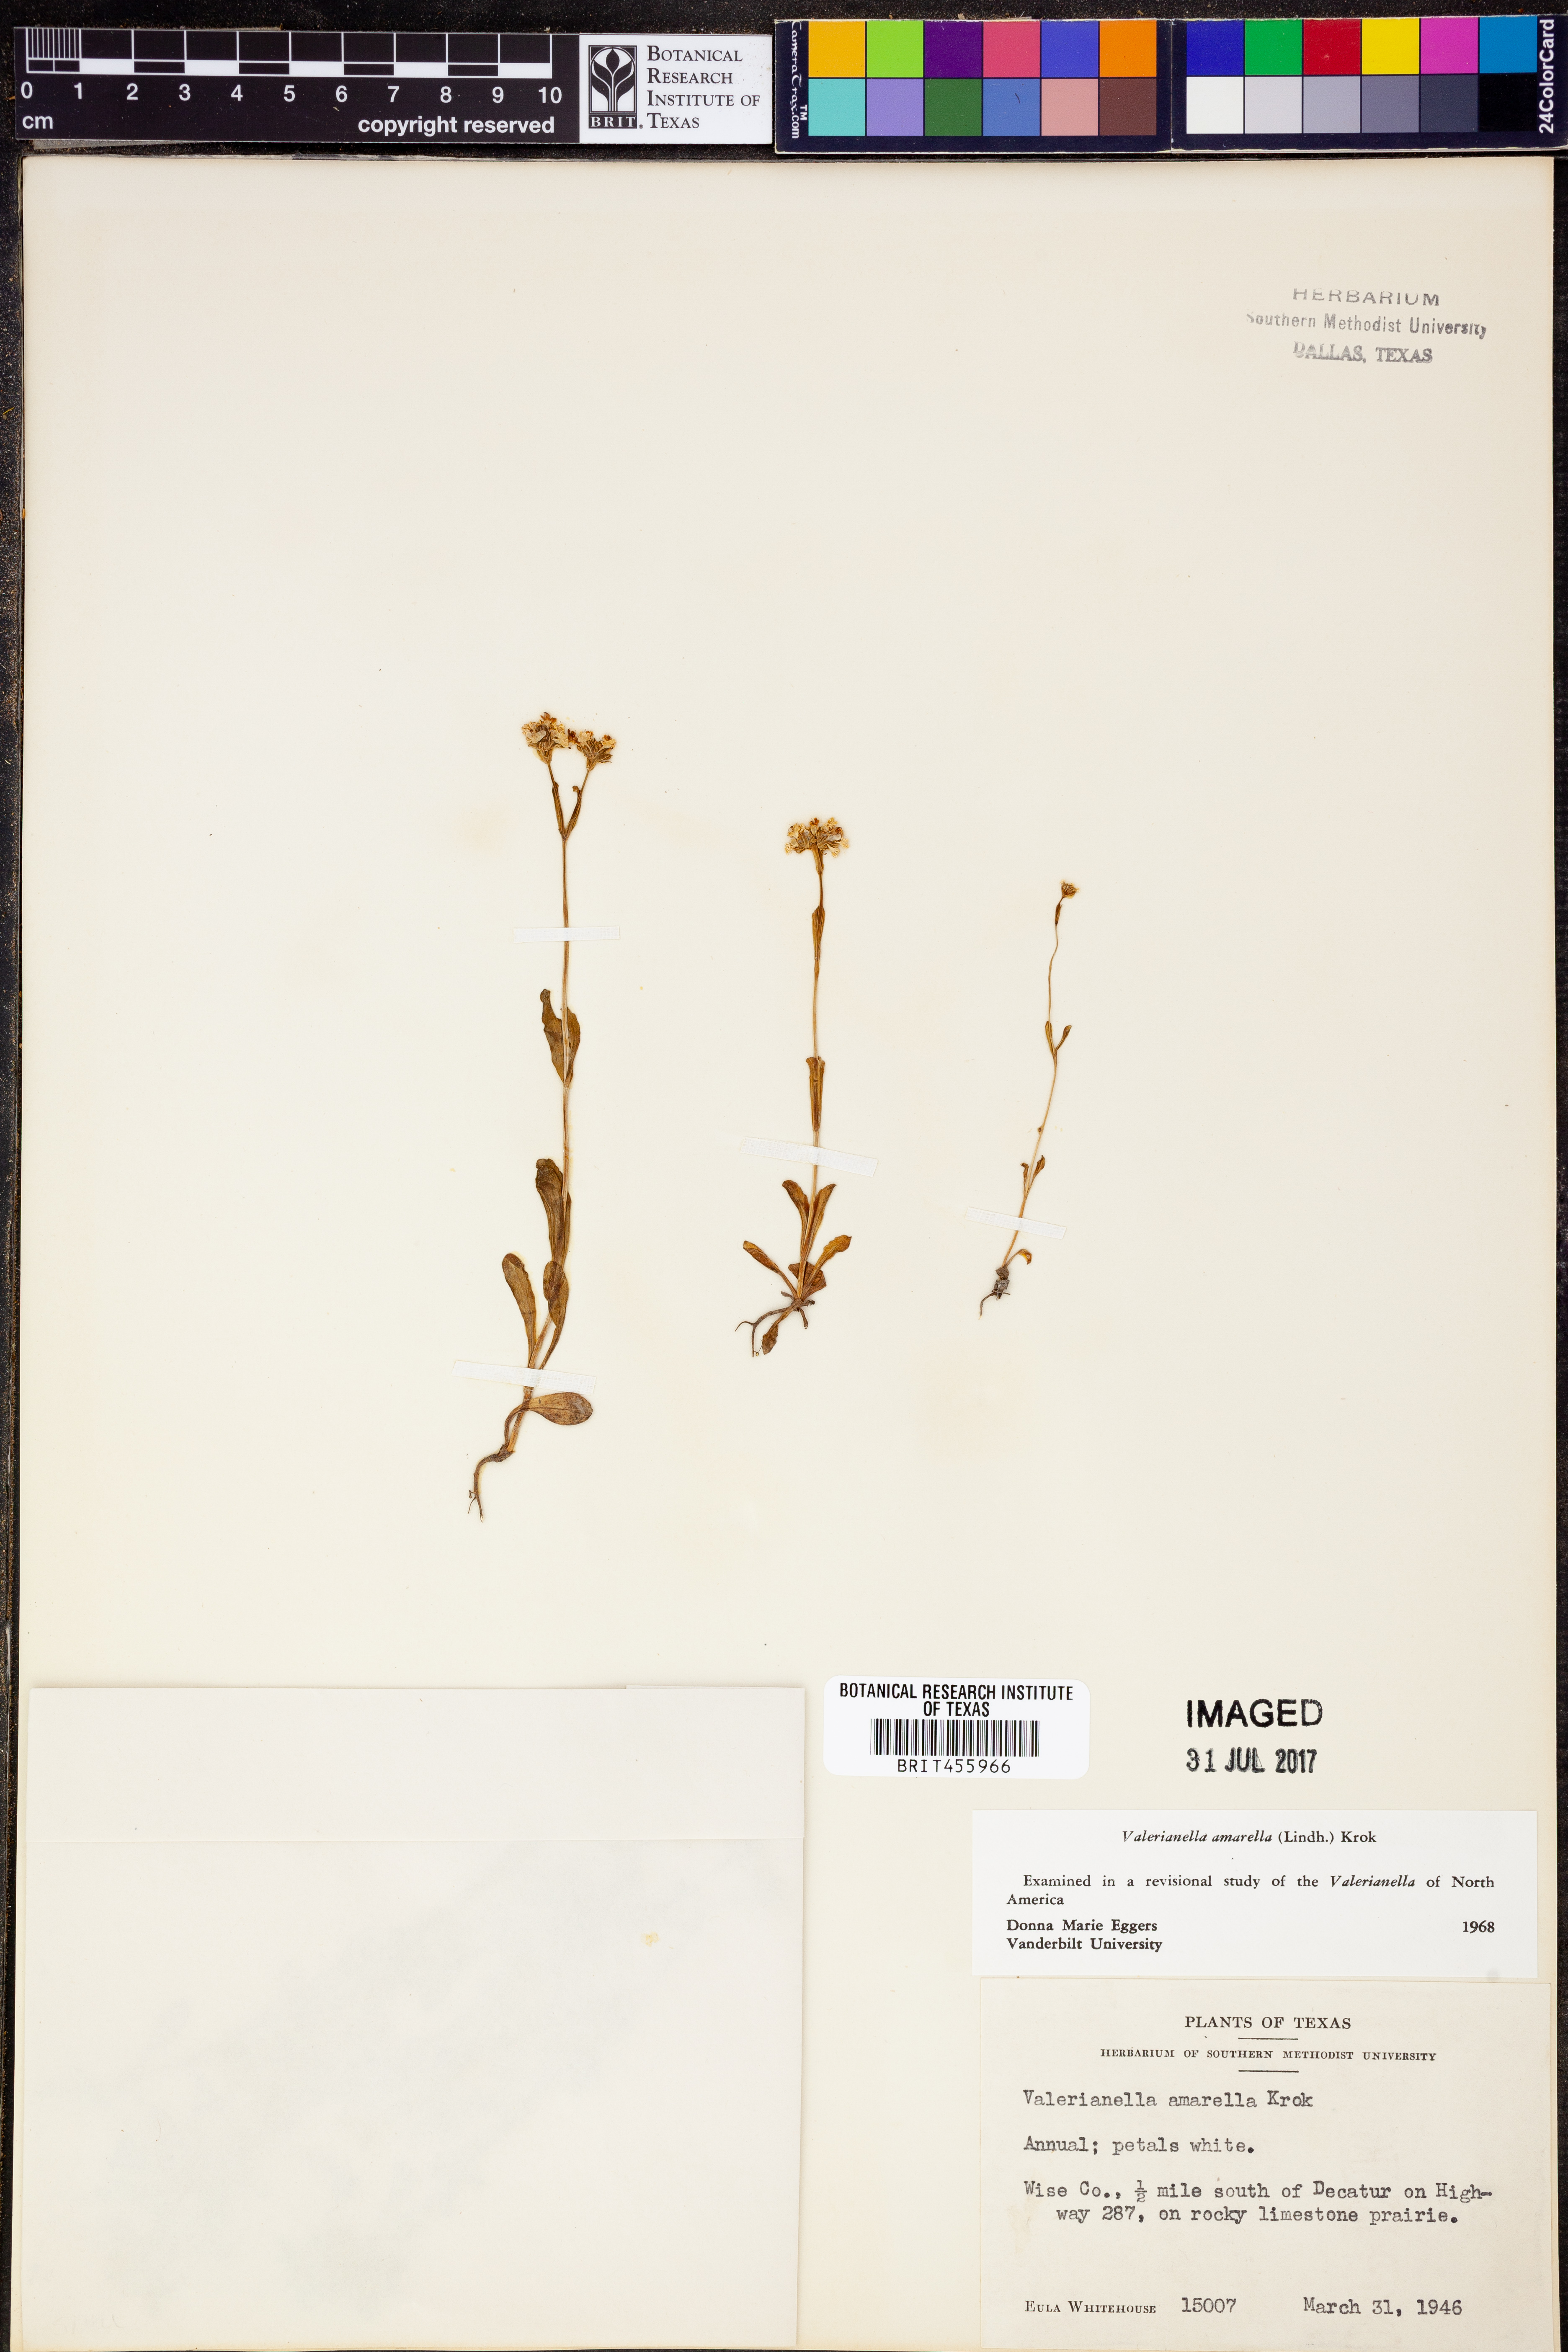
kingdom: Plantae
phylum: Tracheophyta
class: Magnoliopsida
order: Dipsacales
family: Caprifoliaceae
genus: Valerianella
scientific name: Valerianella amarella
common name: Hariy cornsalad
